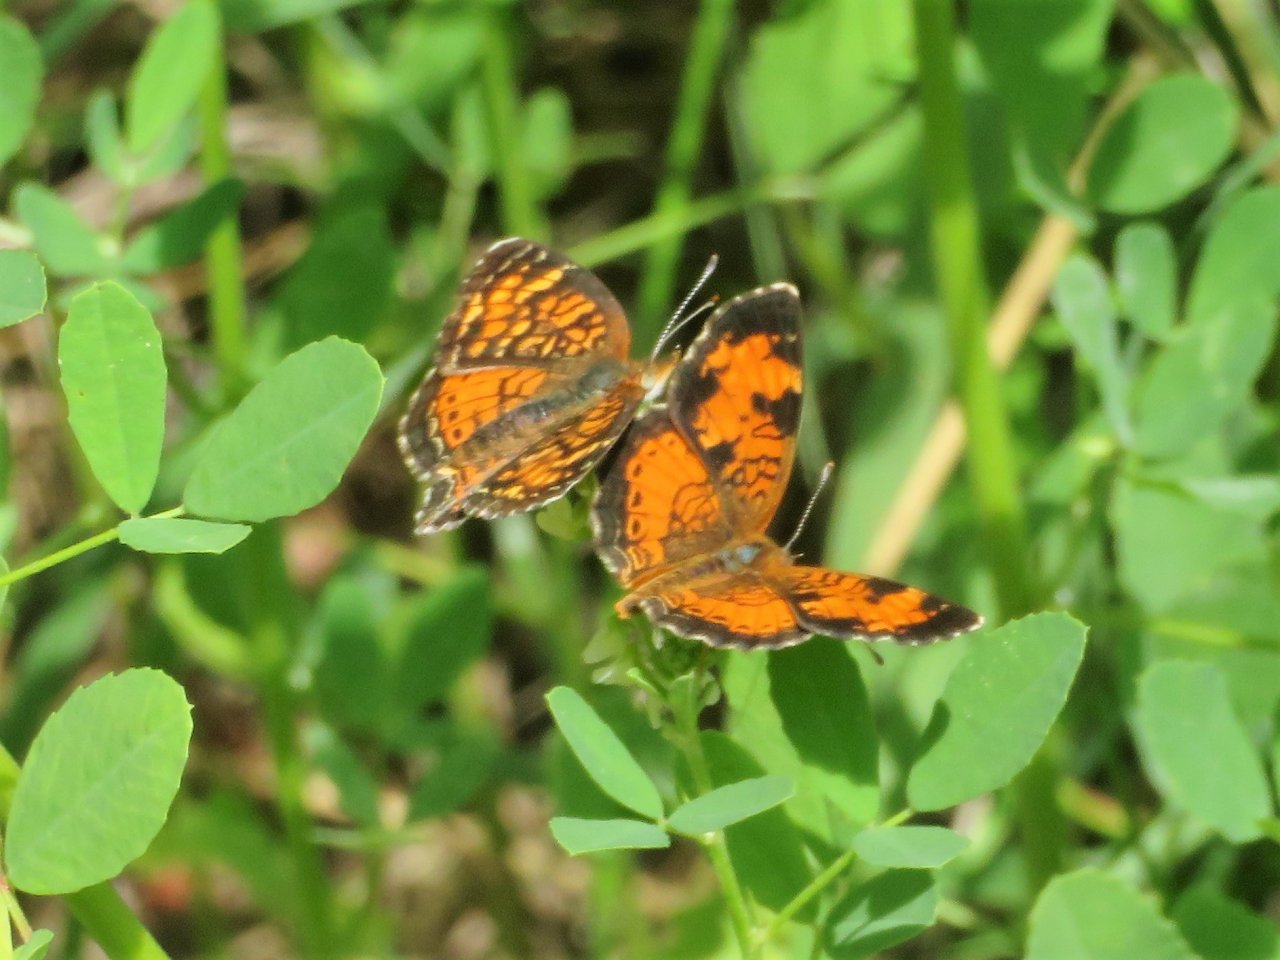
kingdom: Animalia
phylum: Arthropoda
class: Insecta
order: Lepidoptera
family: Nymphalidae
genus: Phyciodes
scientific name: Phyciodes tharos
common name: Northern Crescent
